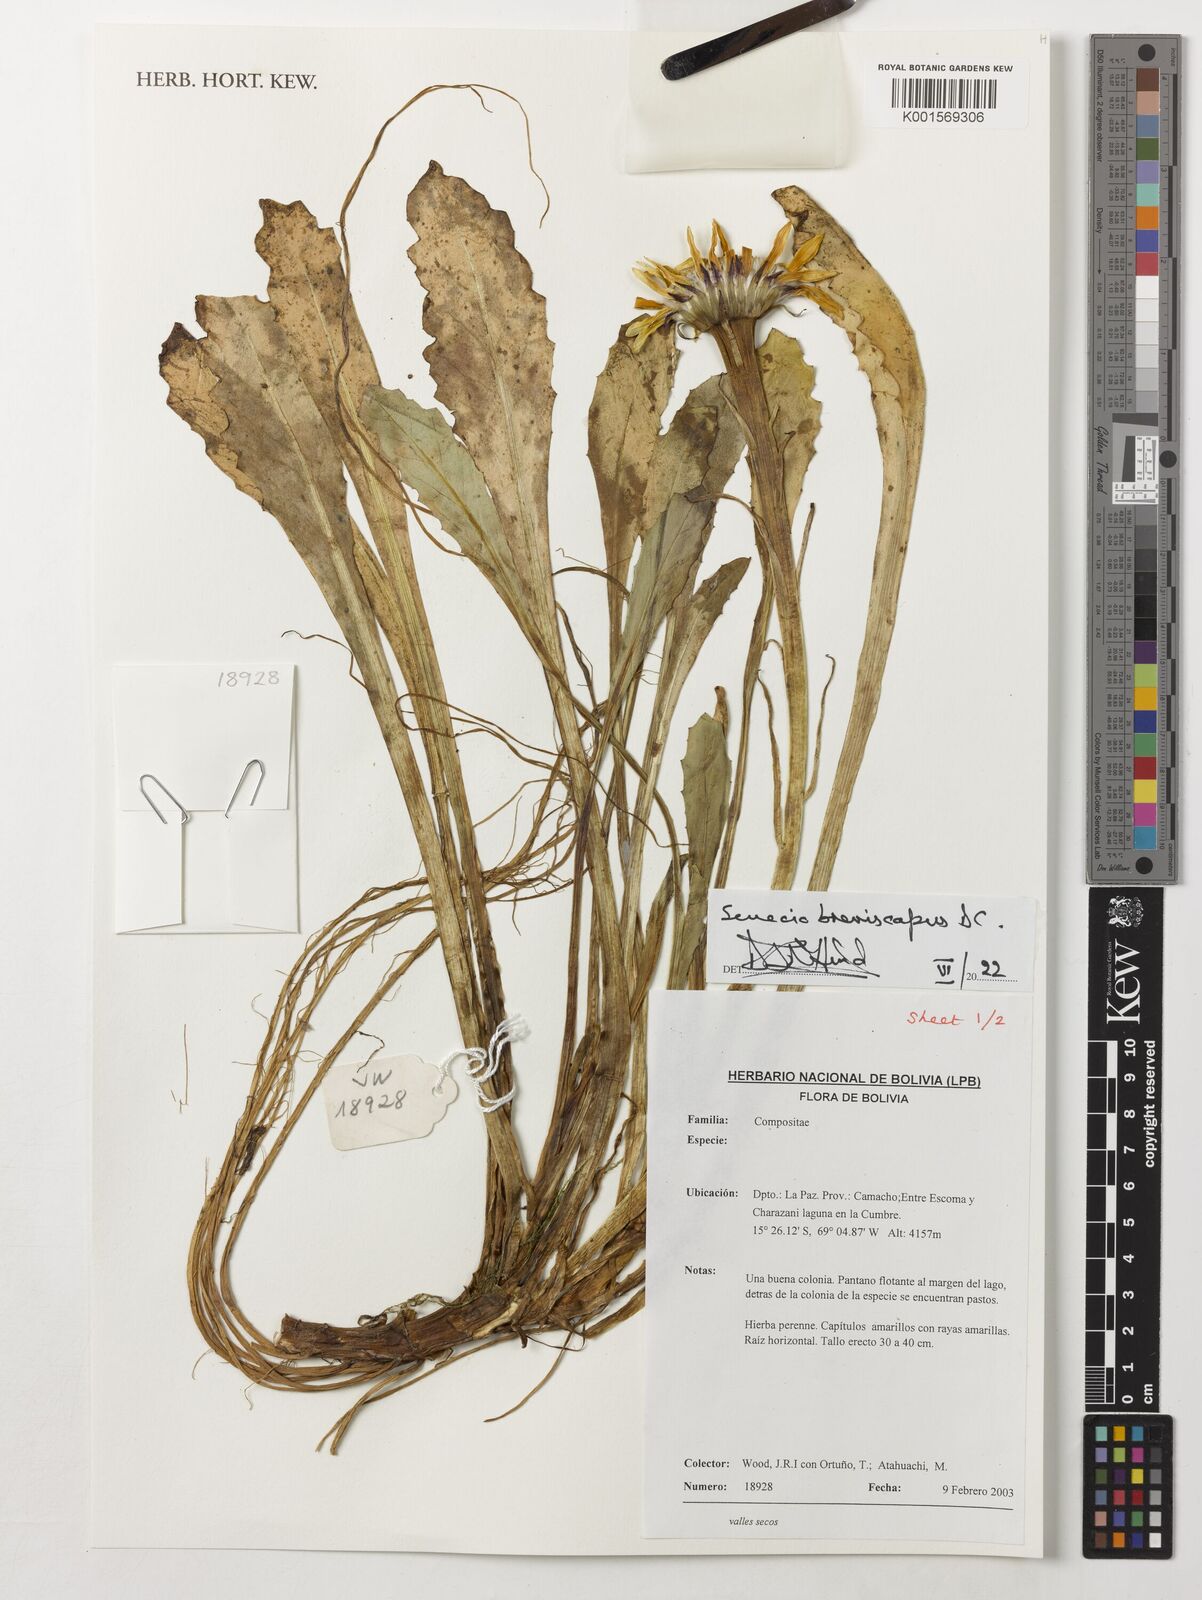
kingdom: Plantae
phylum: Tracheophyta
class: Magnoliopsida
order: Asterales
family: Asteraceae
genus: Senecio
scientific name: Senecio breviscapus
